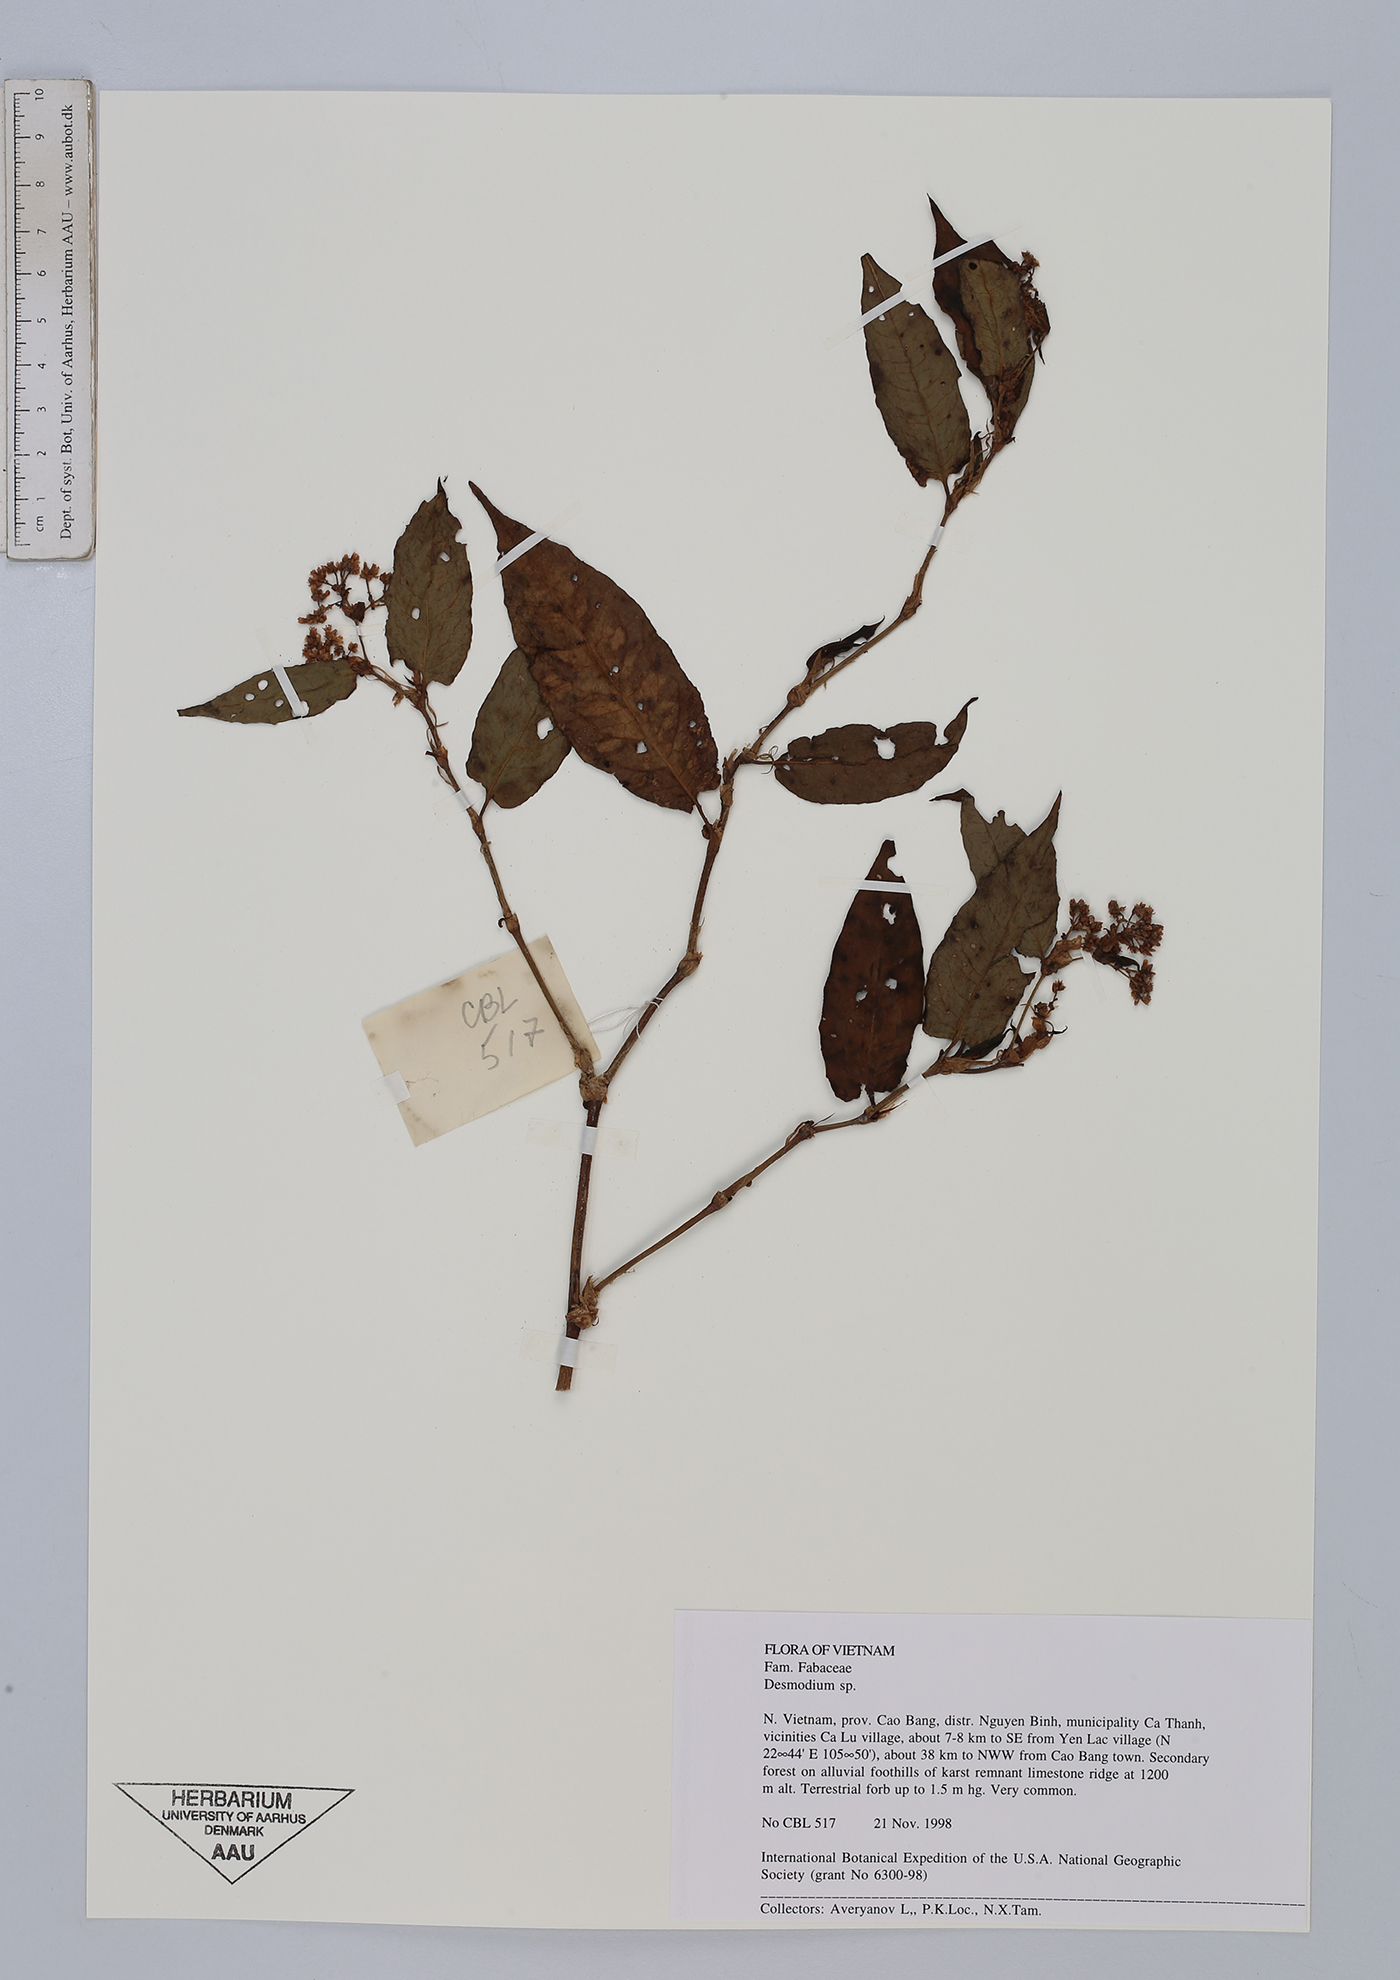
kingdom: Plantae
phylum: Tracheophyta
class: Magnoliopsida
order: Fabales
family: Fabaceae
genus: Desmodium
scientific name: Desmodium
